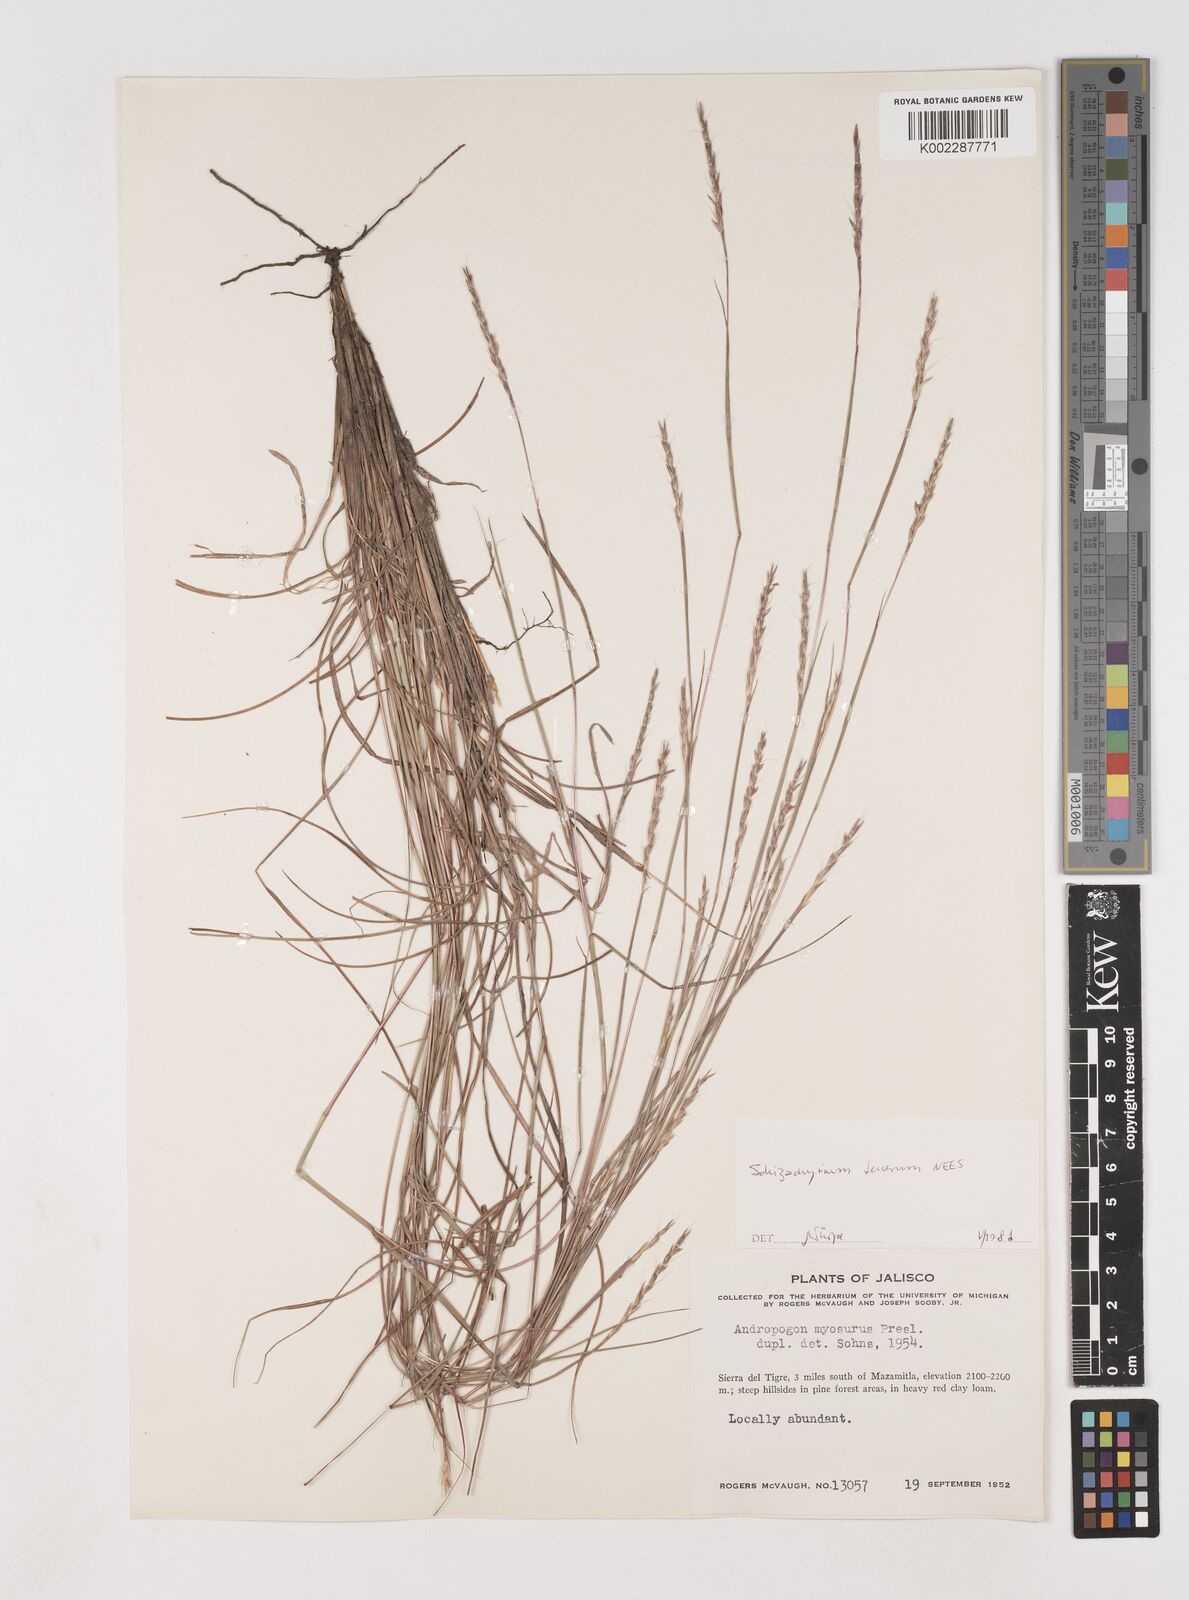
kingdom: Plantae
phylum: Tracheophyta
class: Liliopsida
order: Poales
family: Poaceae
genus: Andropogon
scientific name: Andropogon tener
